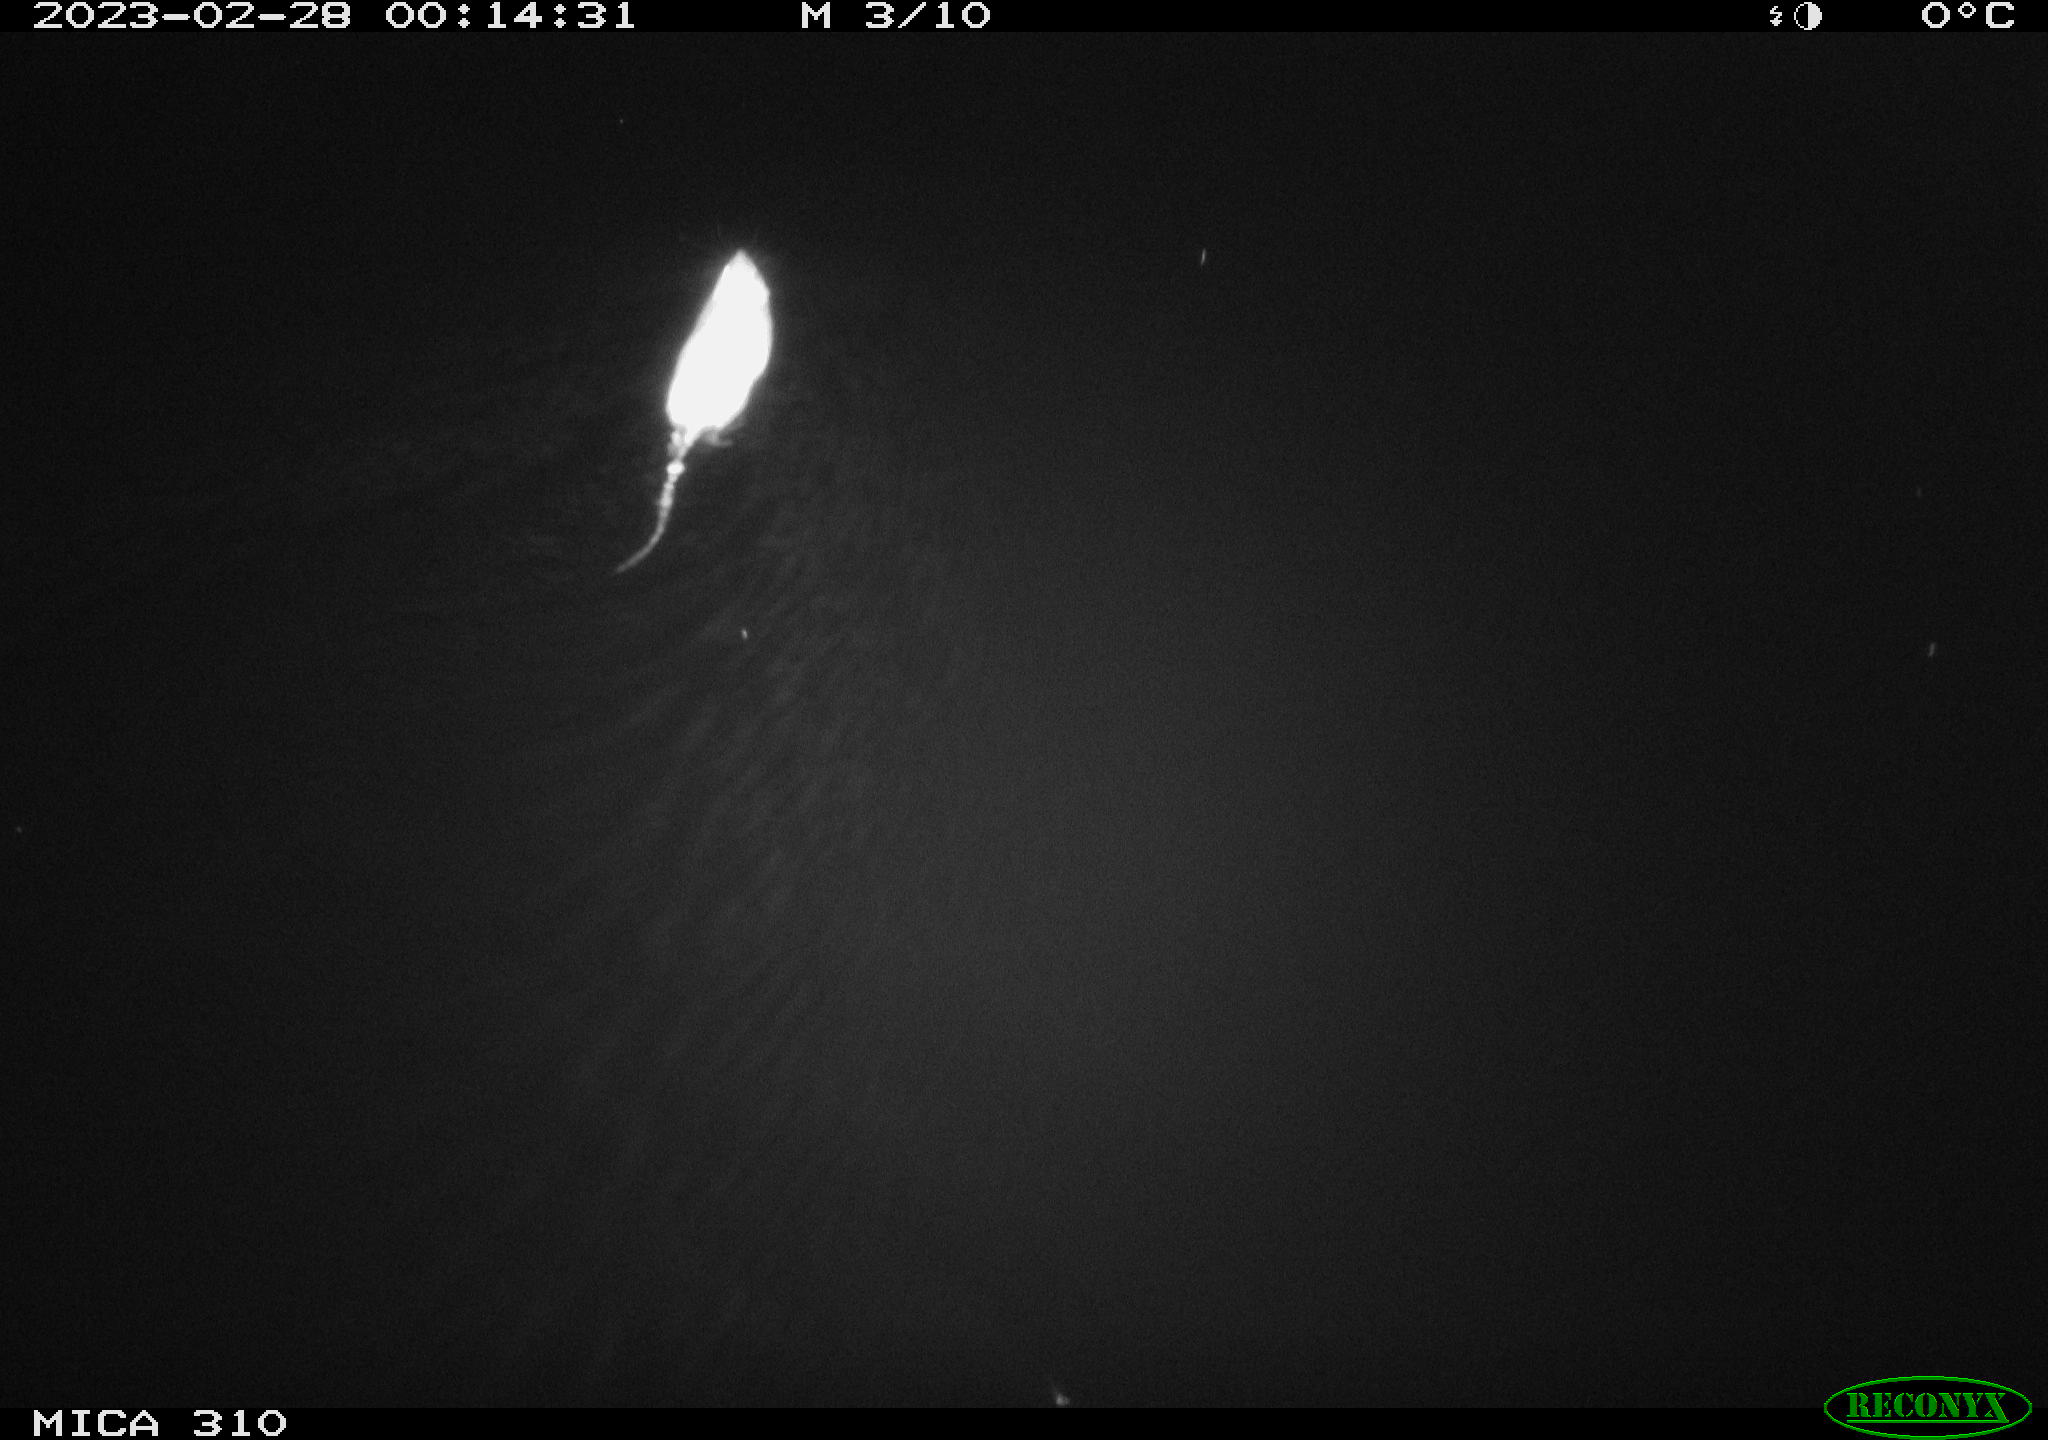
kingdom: Animalia
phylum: Chordata
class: Mammalia
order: Rodentia
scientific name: Rodentia
